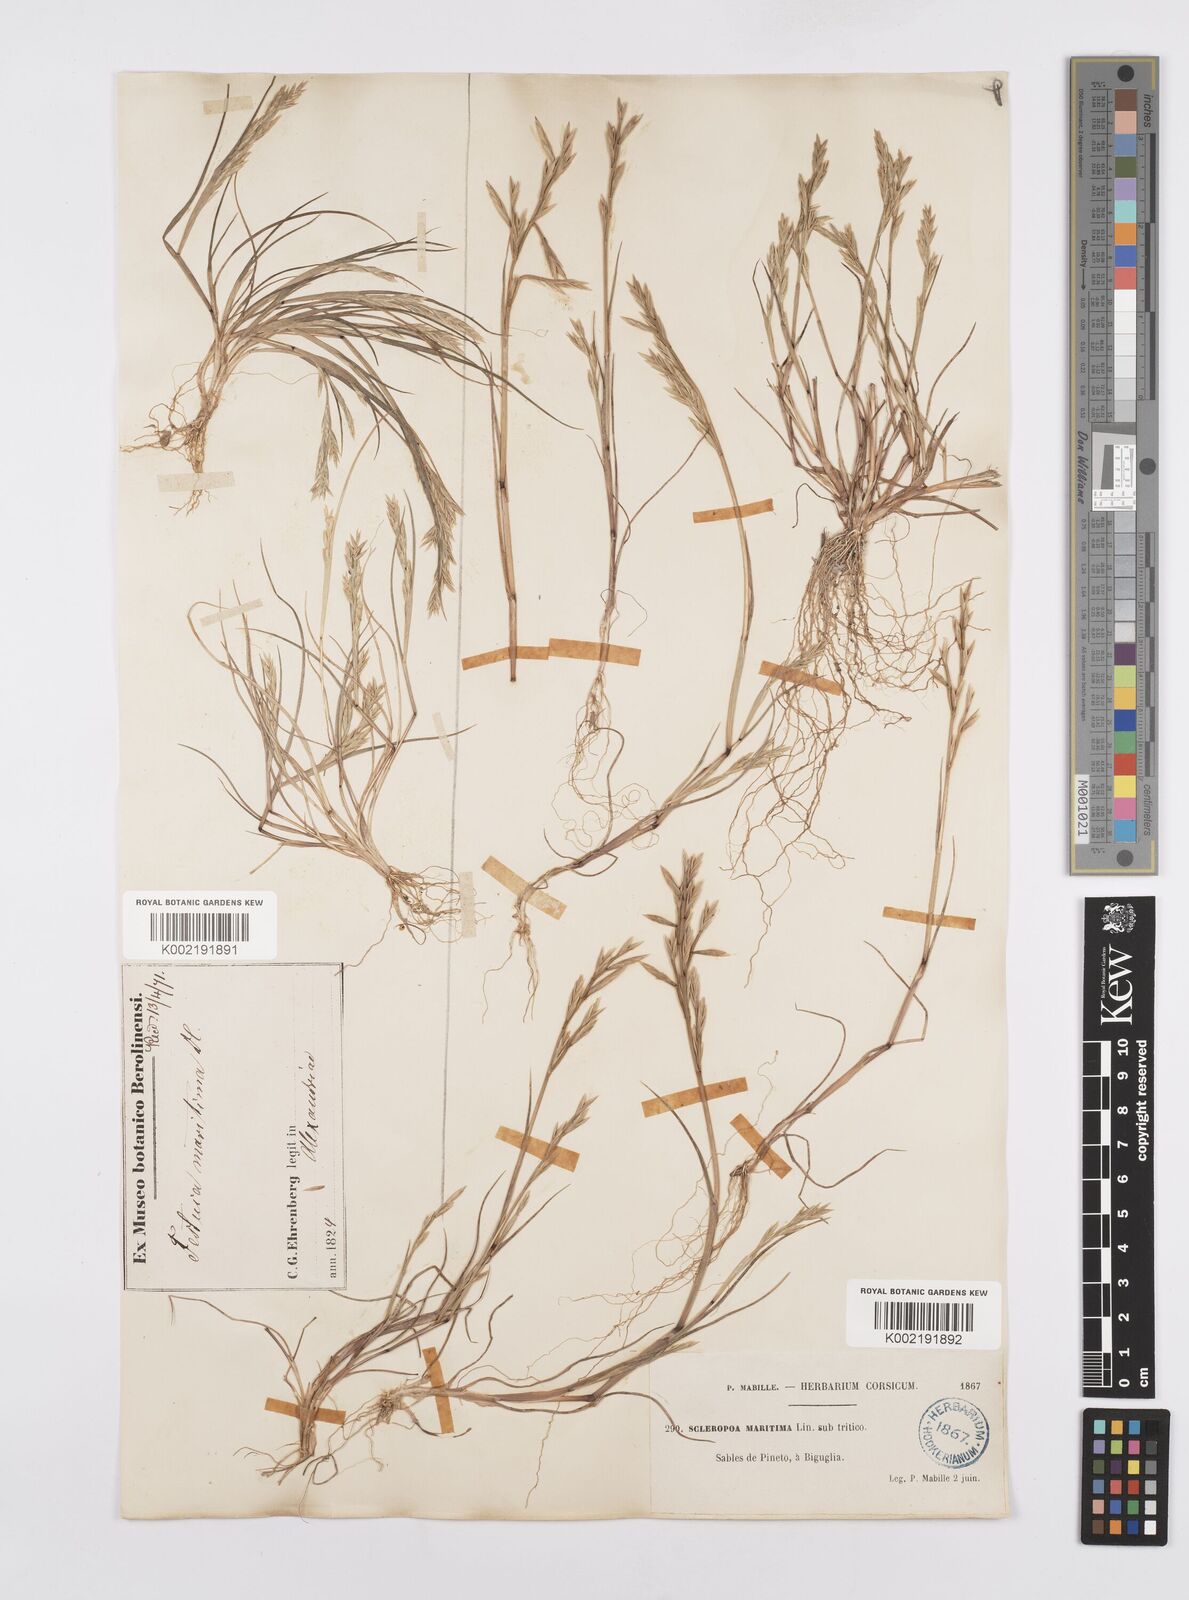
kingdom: Plantae
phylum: Tracheophyta
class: Liliopsida
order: Poales
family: Poaceae
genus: Cutandia
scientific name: Cutandia maritima
